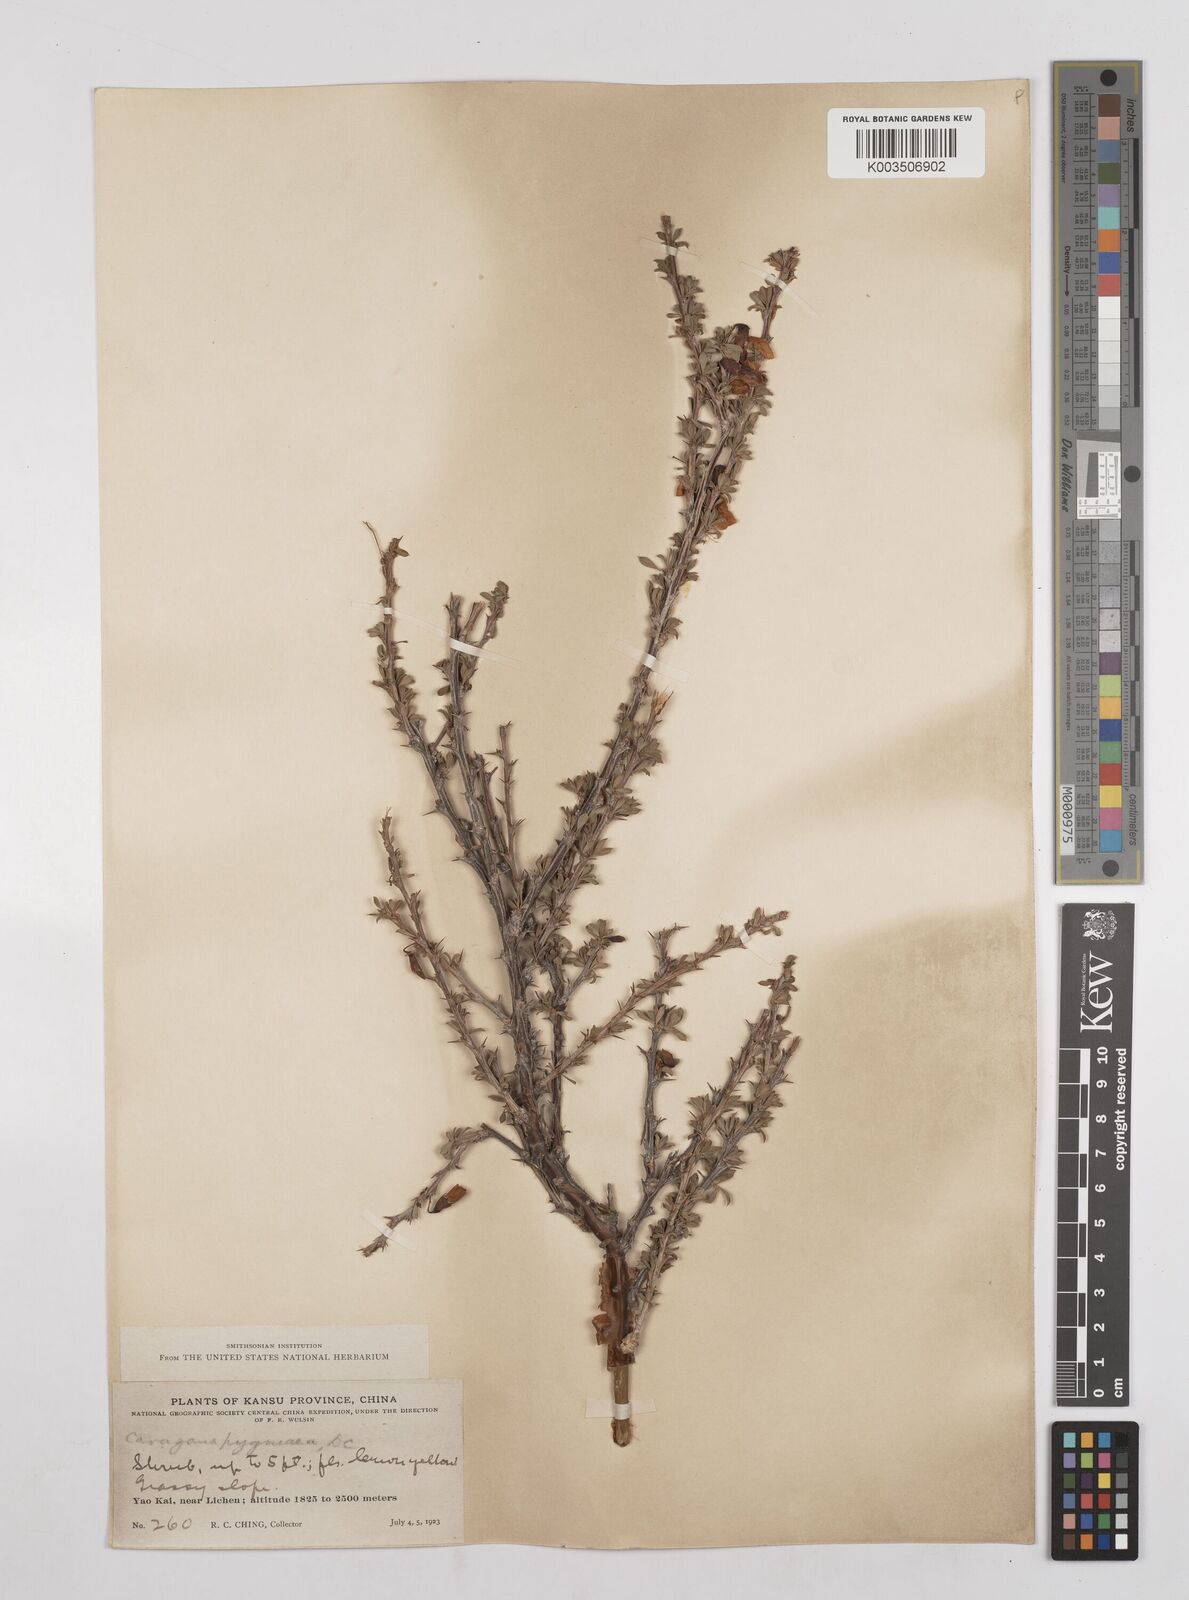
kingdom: Plantae
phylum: Tracheophyta
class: Magnoliopsida
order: Fabales
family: Fabaceae
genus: Caragana
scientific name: Caragana pygmaea
